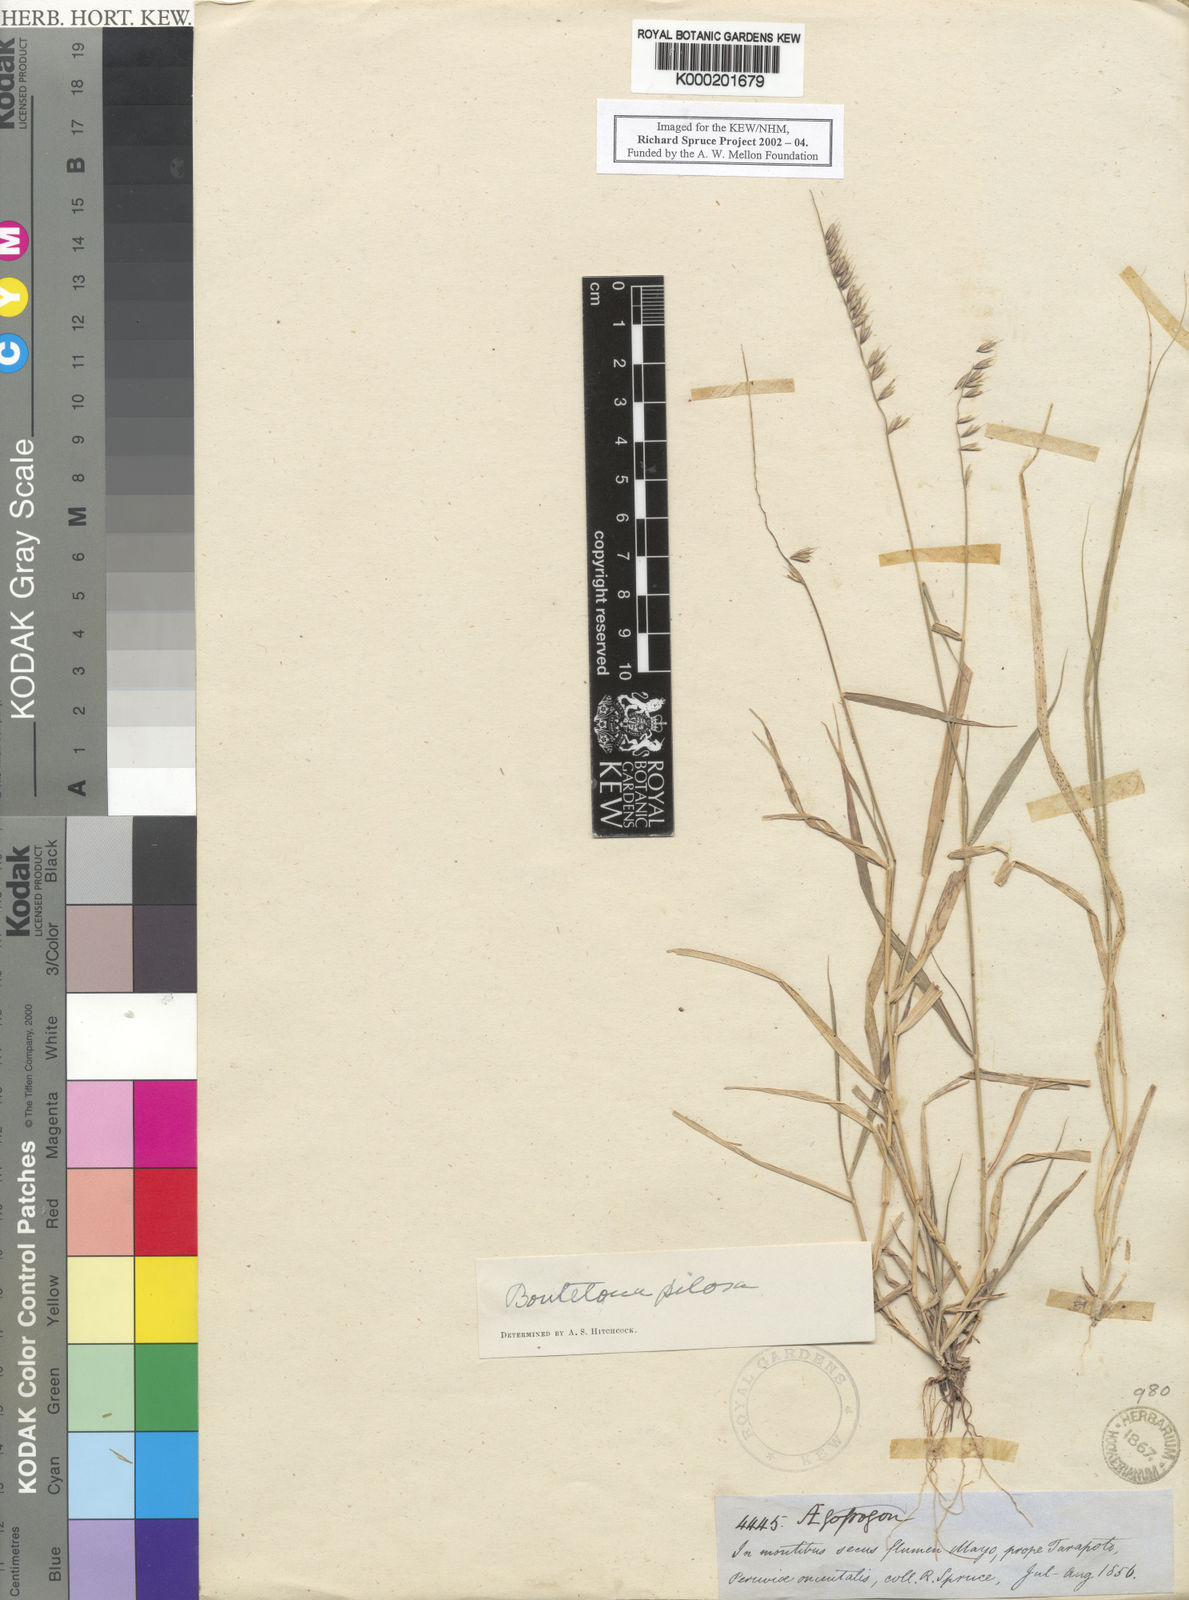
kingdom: Plantae
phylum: Tracheophyta
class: Liliopsida
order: Poales
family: Poaceae
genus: Bouteloua
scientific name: Bouteloua disticha
